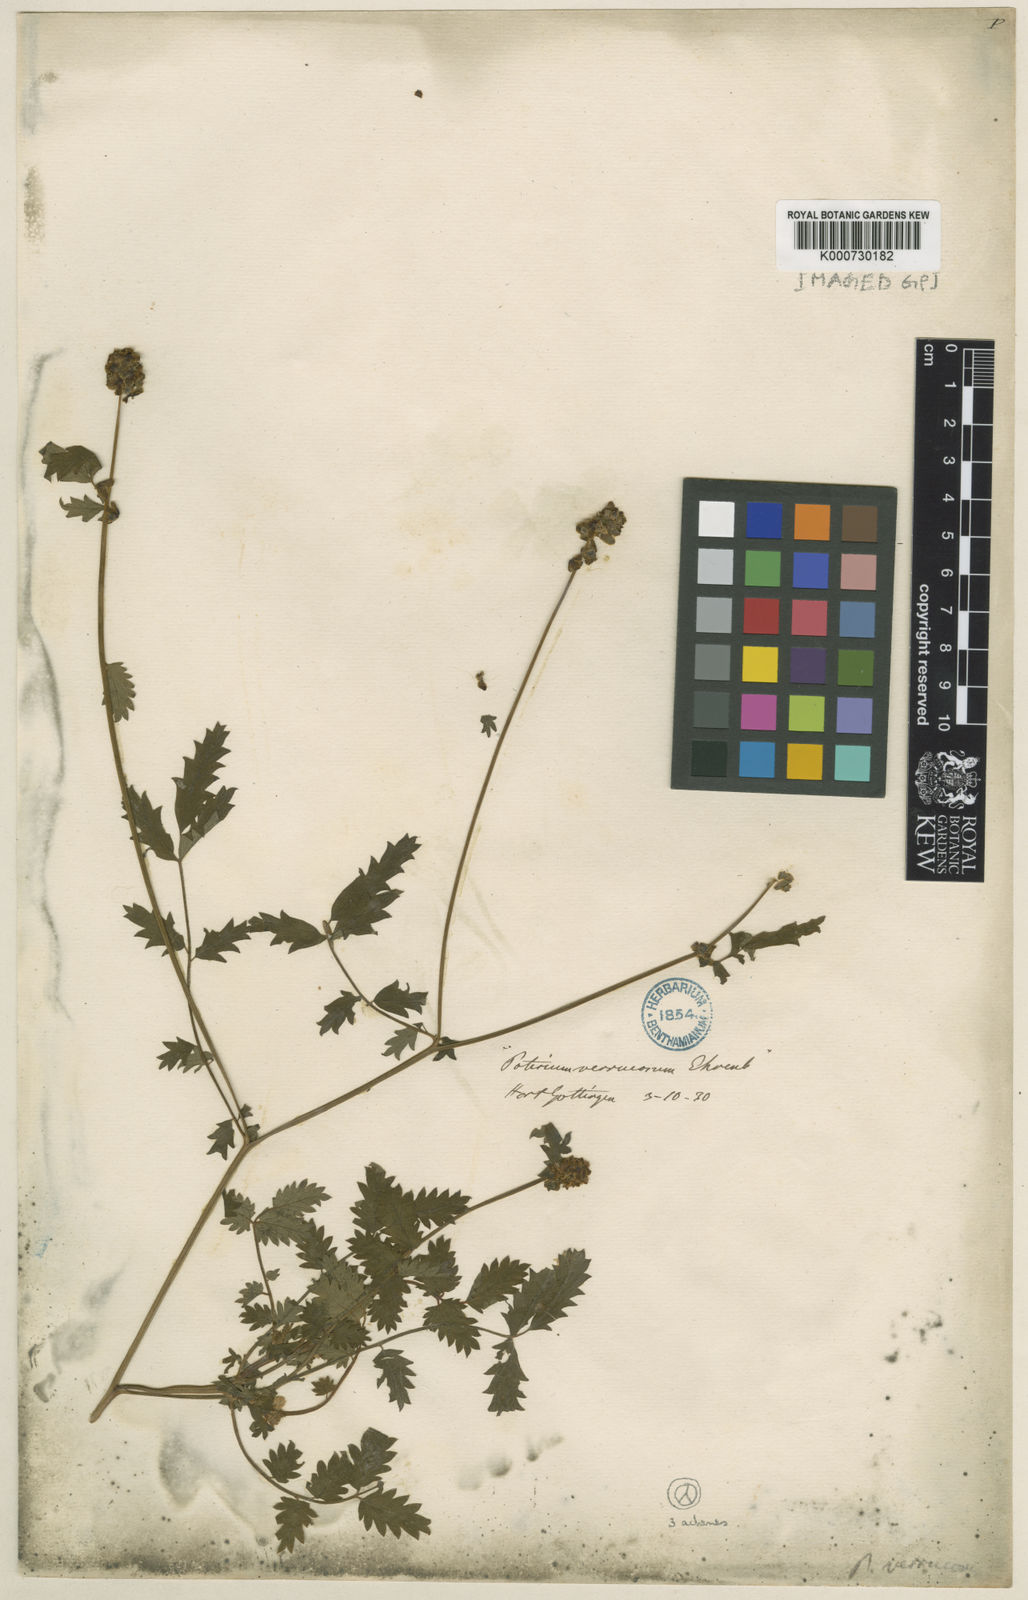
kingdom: Plantae
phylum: Tracheophyta
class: Magnoliopsida
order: Rosales
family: Rosaceae
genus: Poterium
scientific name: Poterium sanguisorba
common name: Salad burnet
